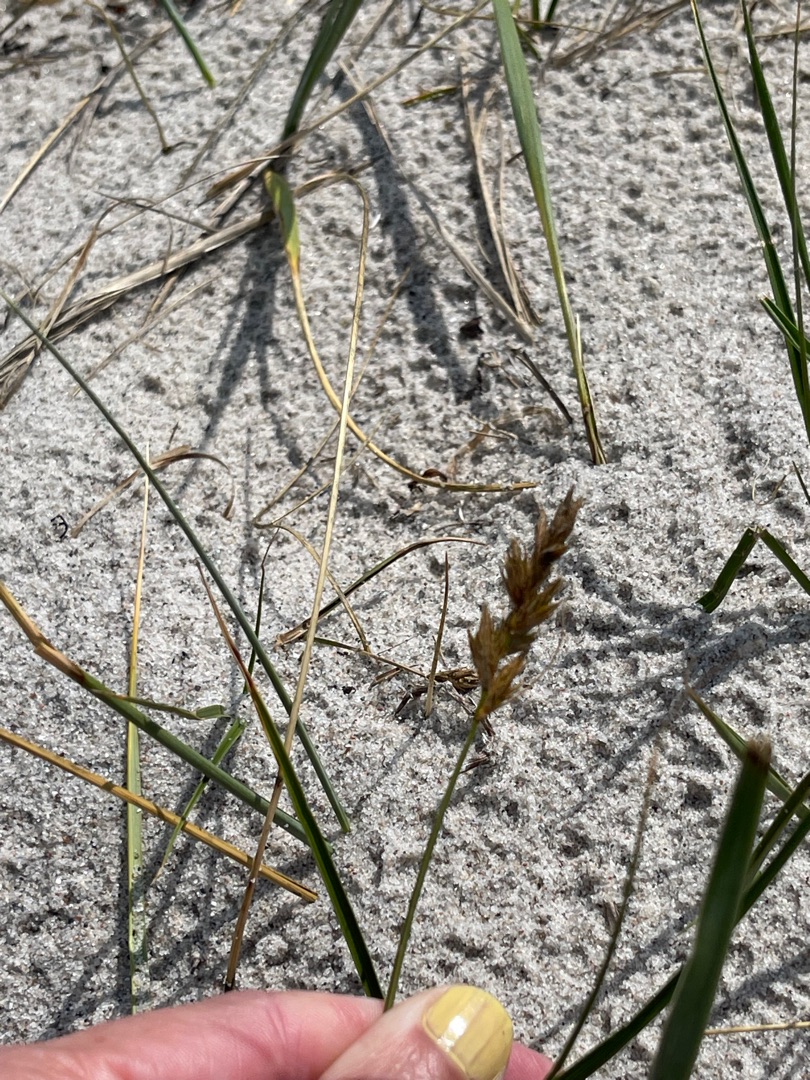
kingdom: Plantae
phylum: Tracheophyta
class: Liliopsida
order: Poales
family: Cyperaceae
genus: Carex
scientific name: Carex arenaria
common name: Sand-star
